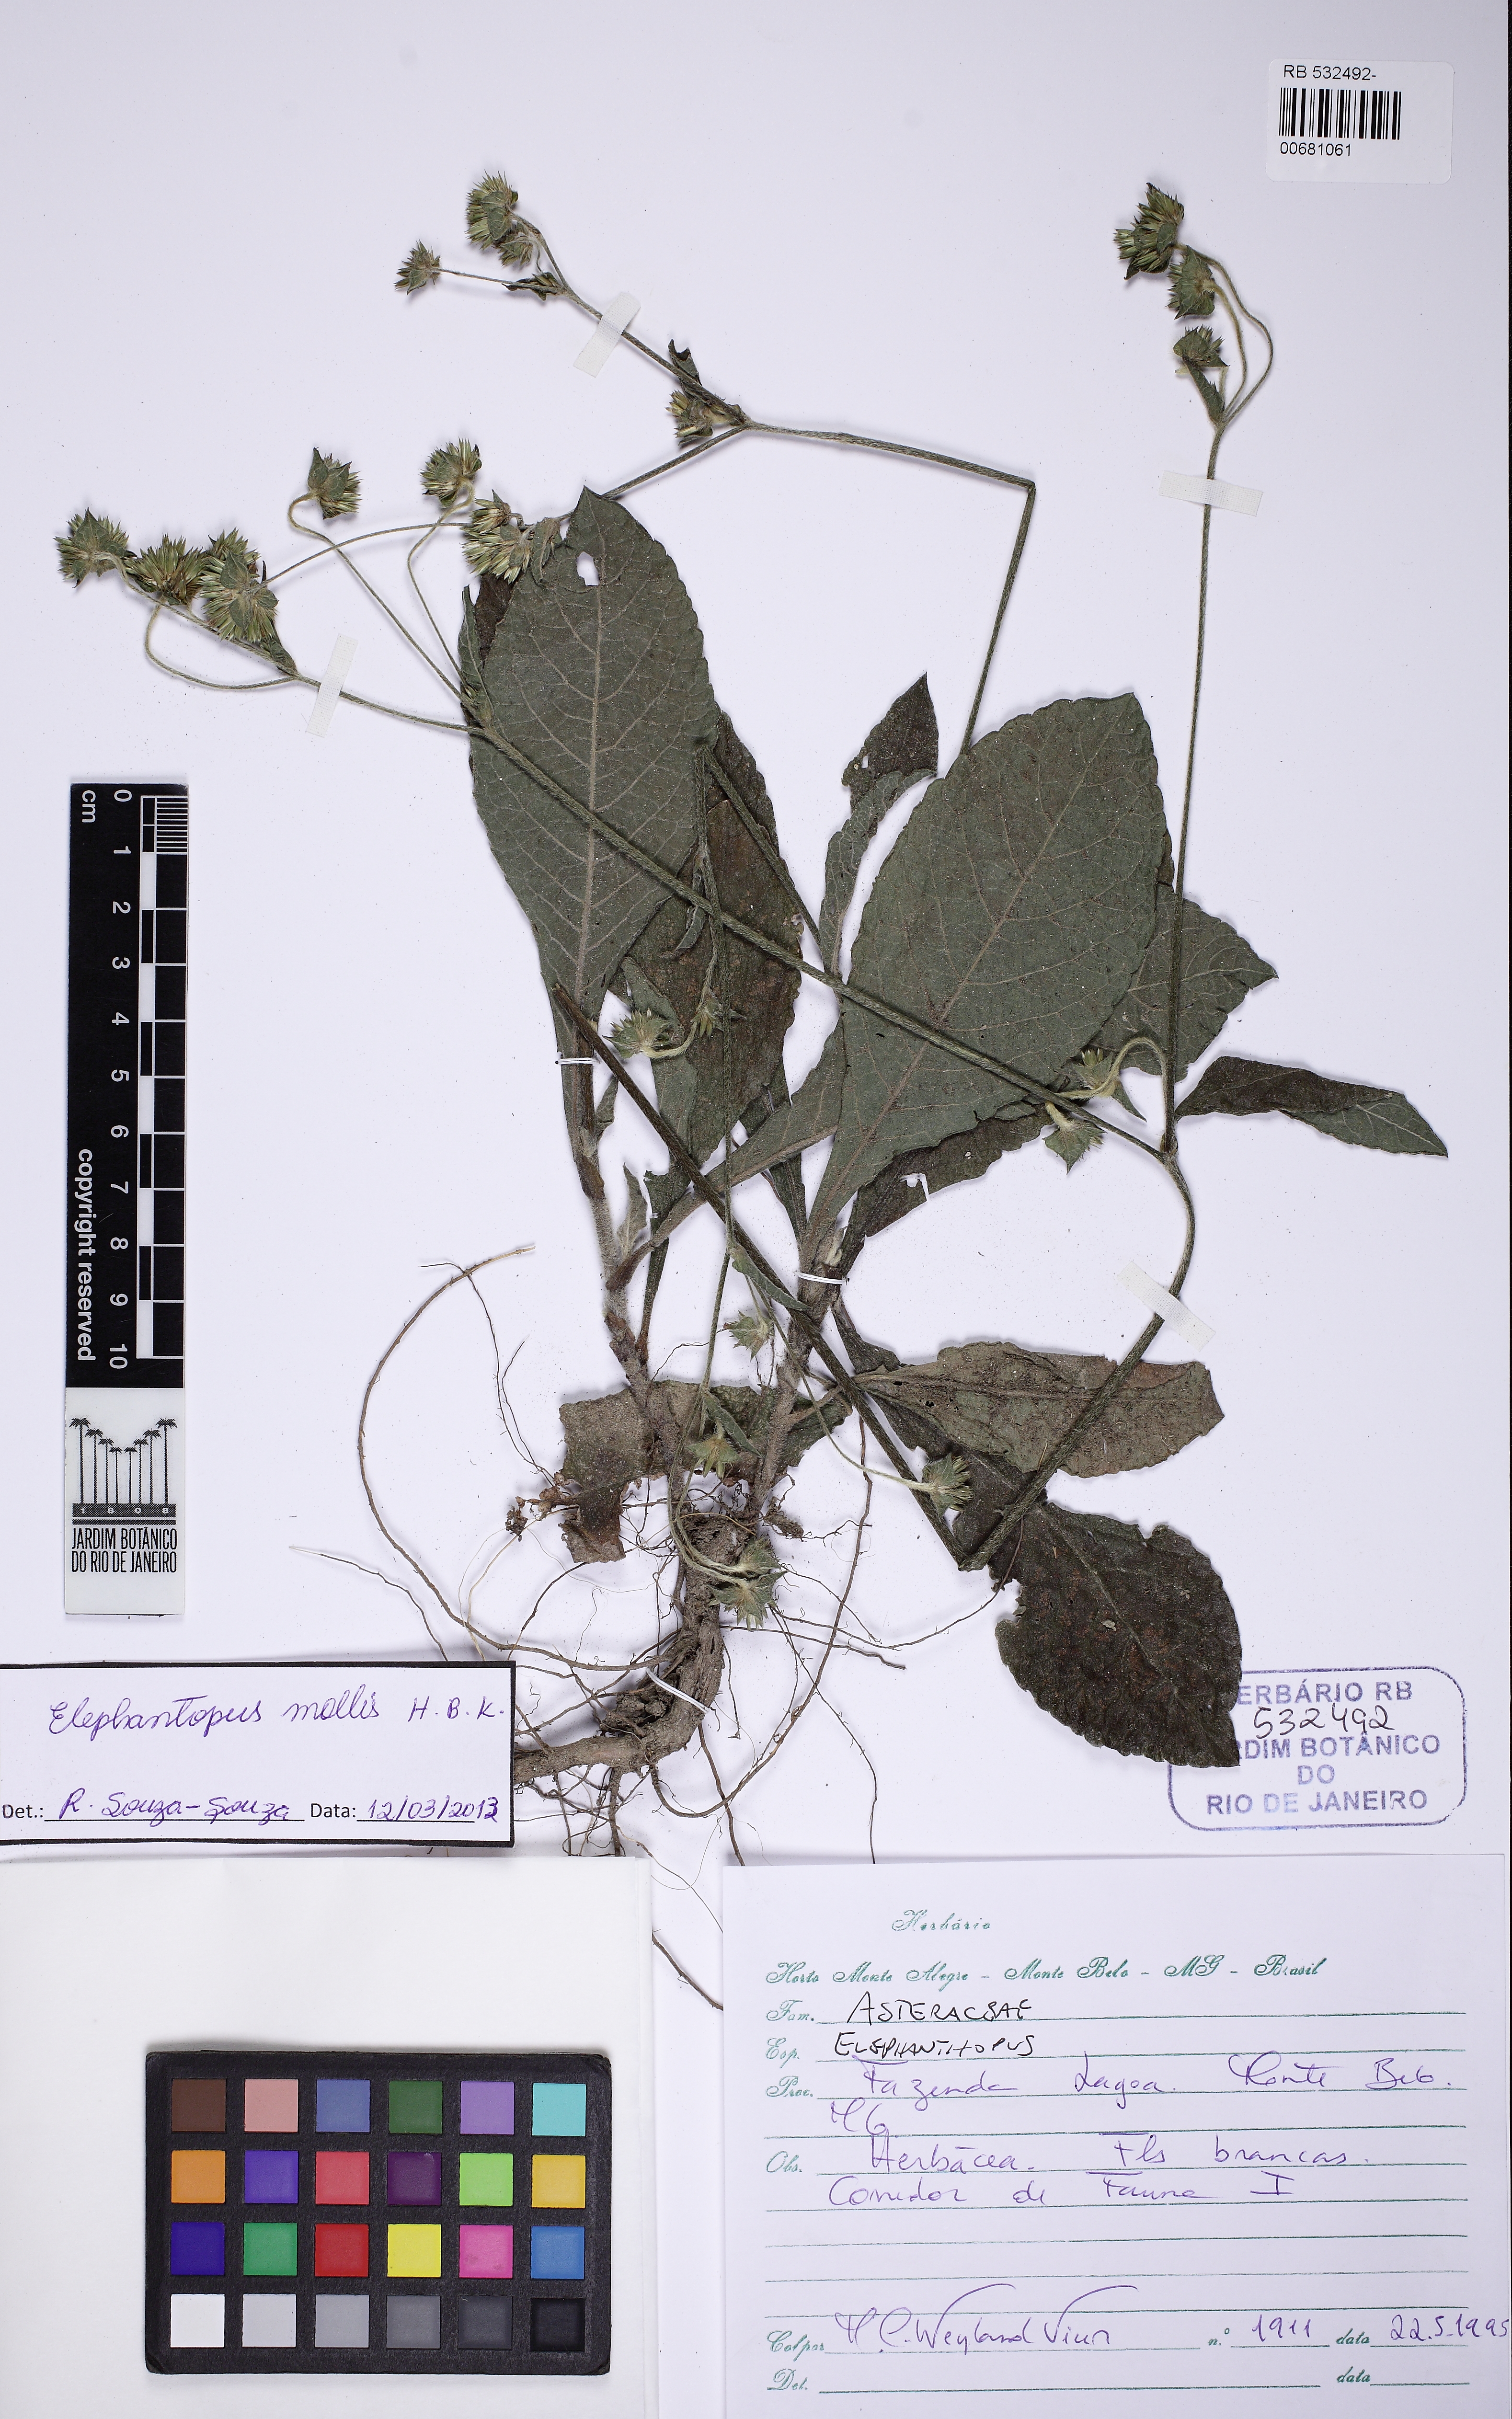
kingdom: Plantae
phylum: Tracheophyta
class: Magnoliopsida
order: Asterales
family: Asteraceae
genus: Elephantopus
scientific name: Elephantopus mollis
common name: Soft elephantsfoot
